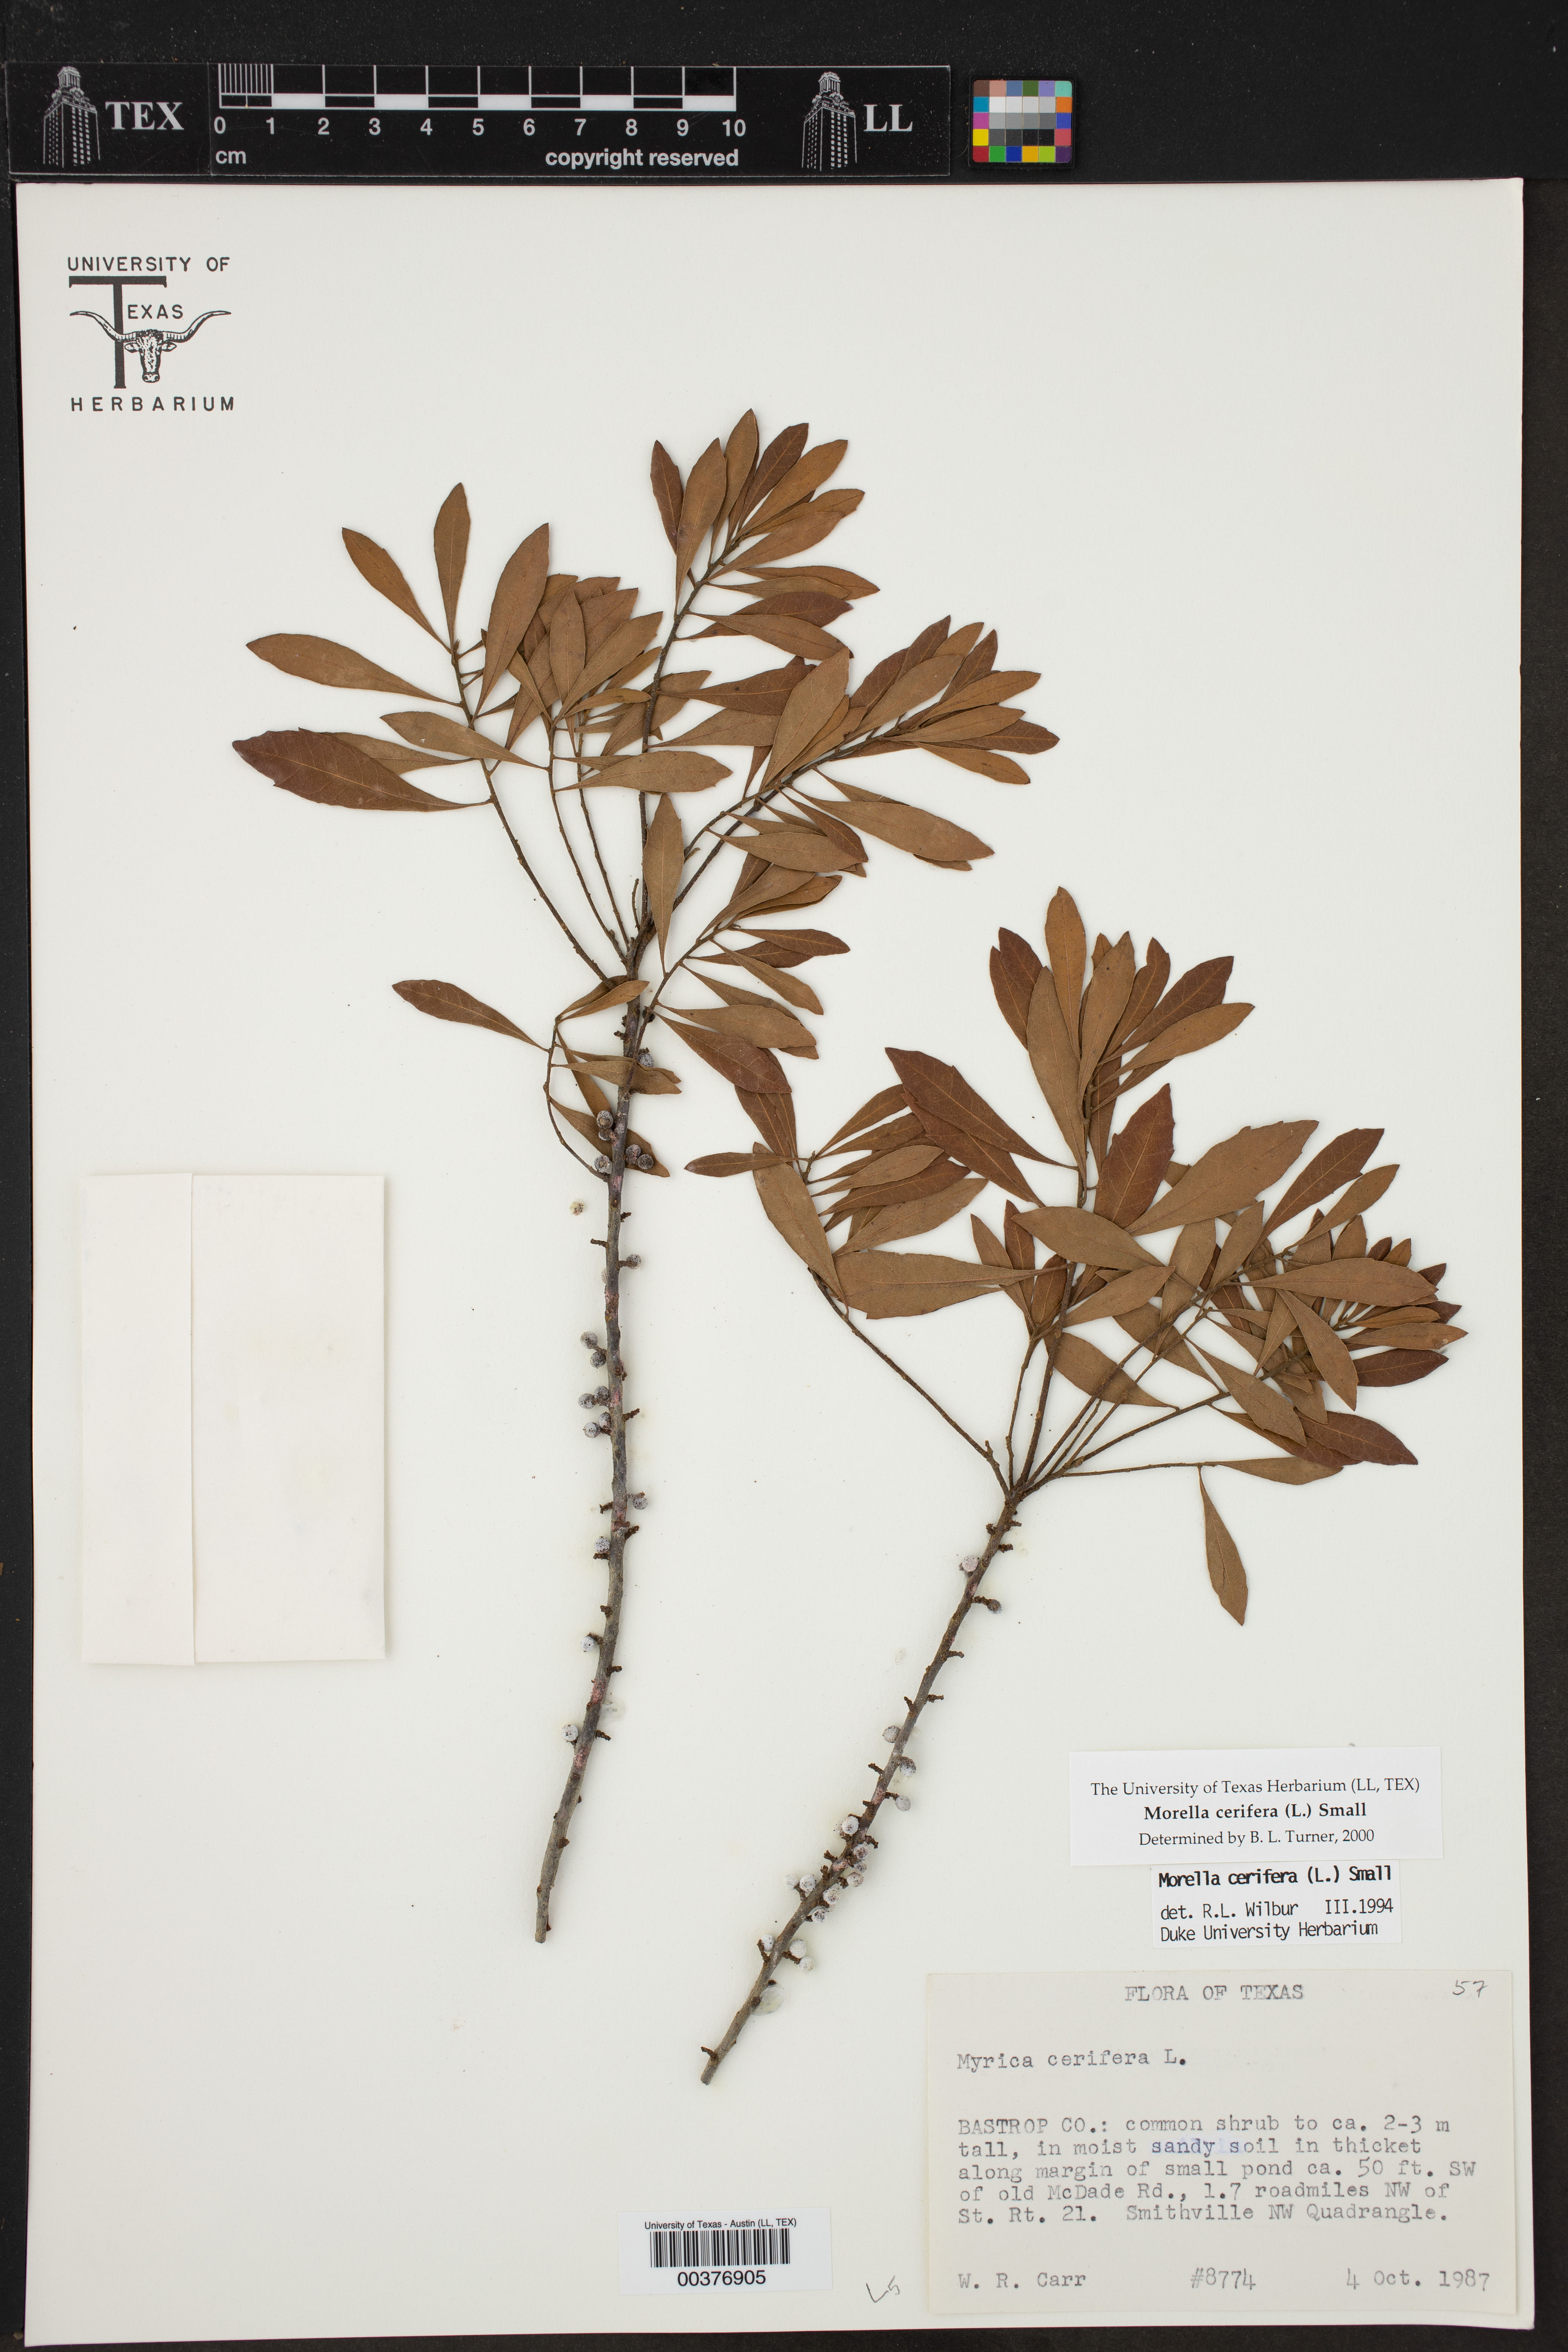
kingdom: Plantae
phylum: Tracheophyta
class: Magnoliopsida
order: Fagales
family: Myricaceae
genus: Morella
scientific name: Morella cerifera
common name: Wax myrtle
